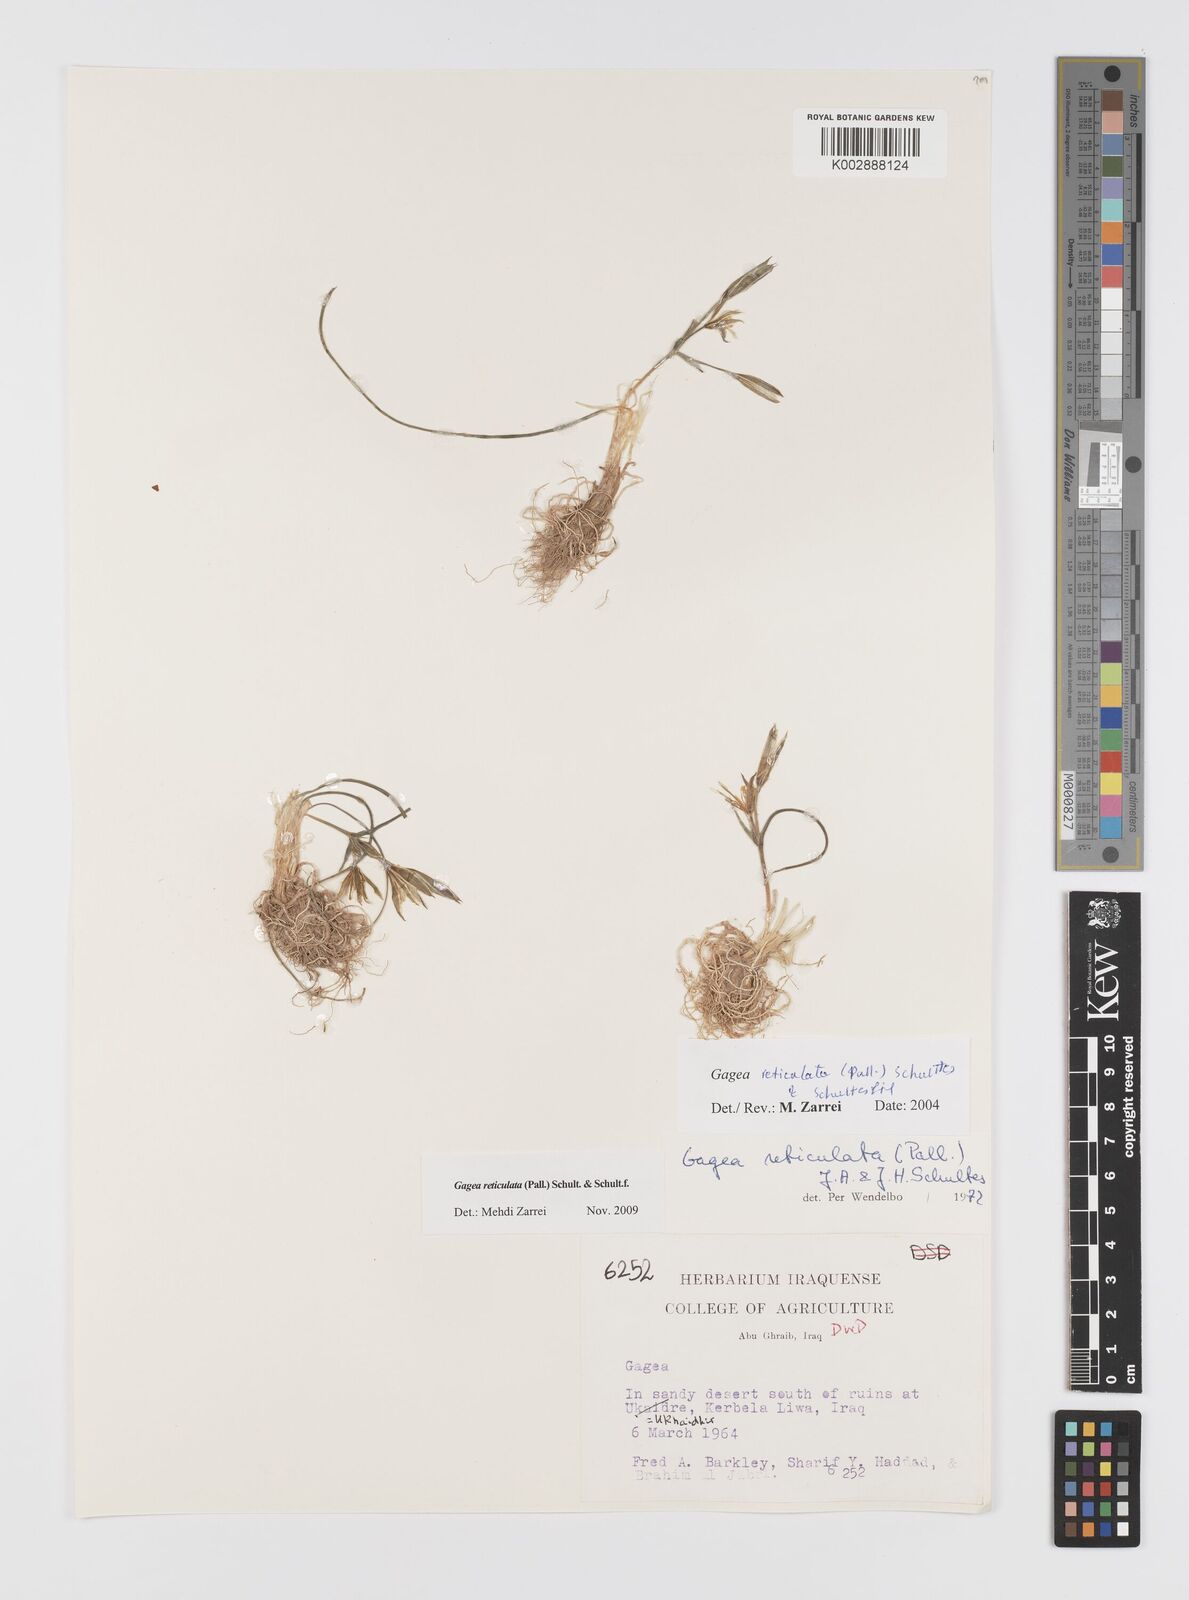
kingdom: Plantae
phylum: Tracheophyta
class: Liliopsida
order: Liliales
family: Liliaceae
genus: Gagea
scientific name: Gagea reticulata
